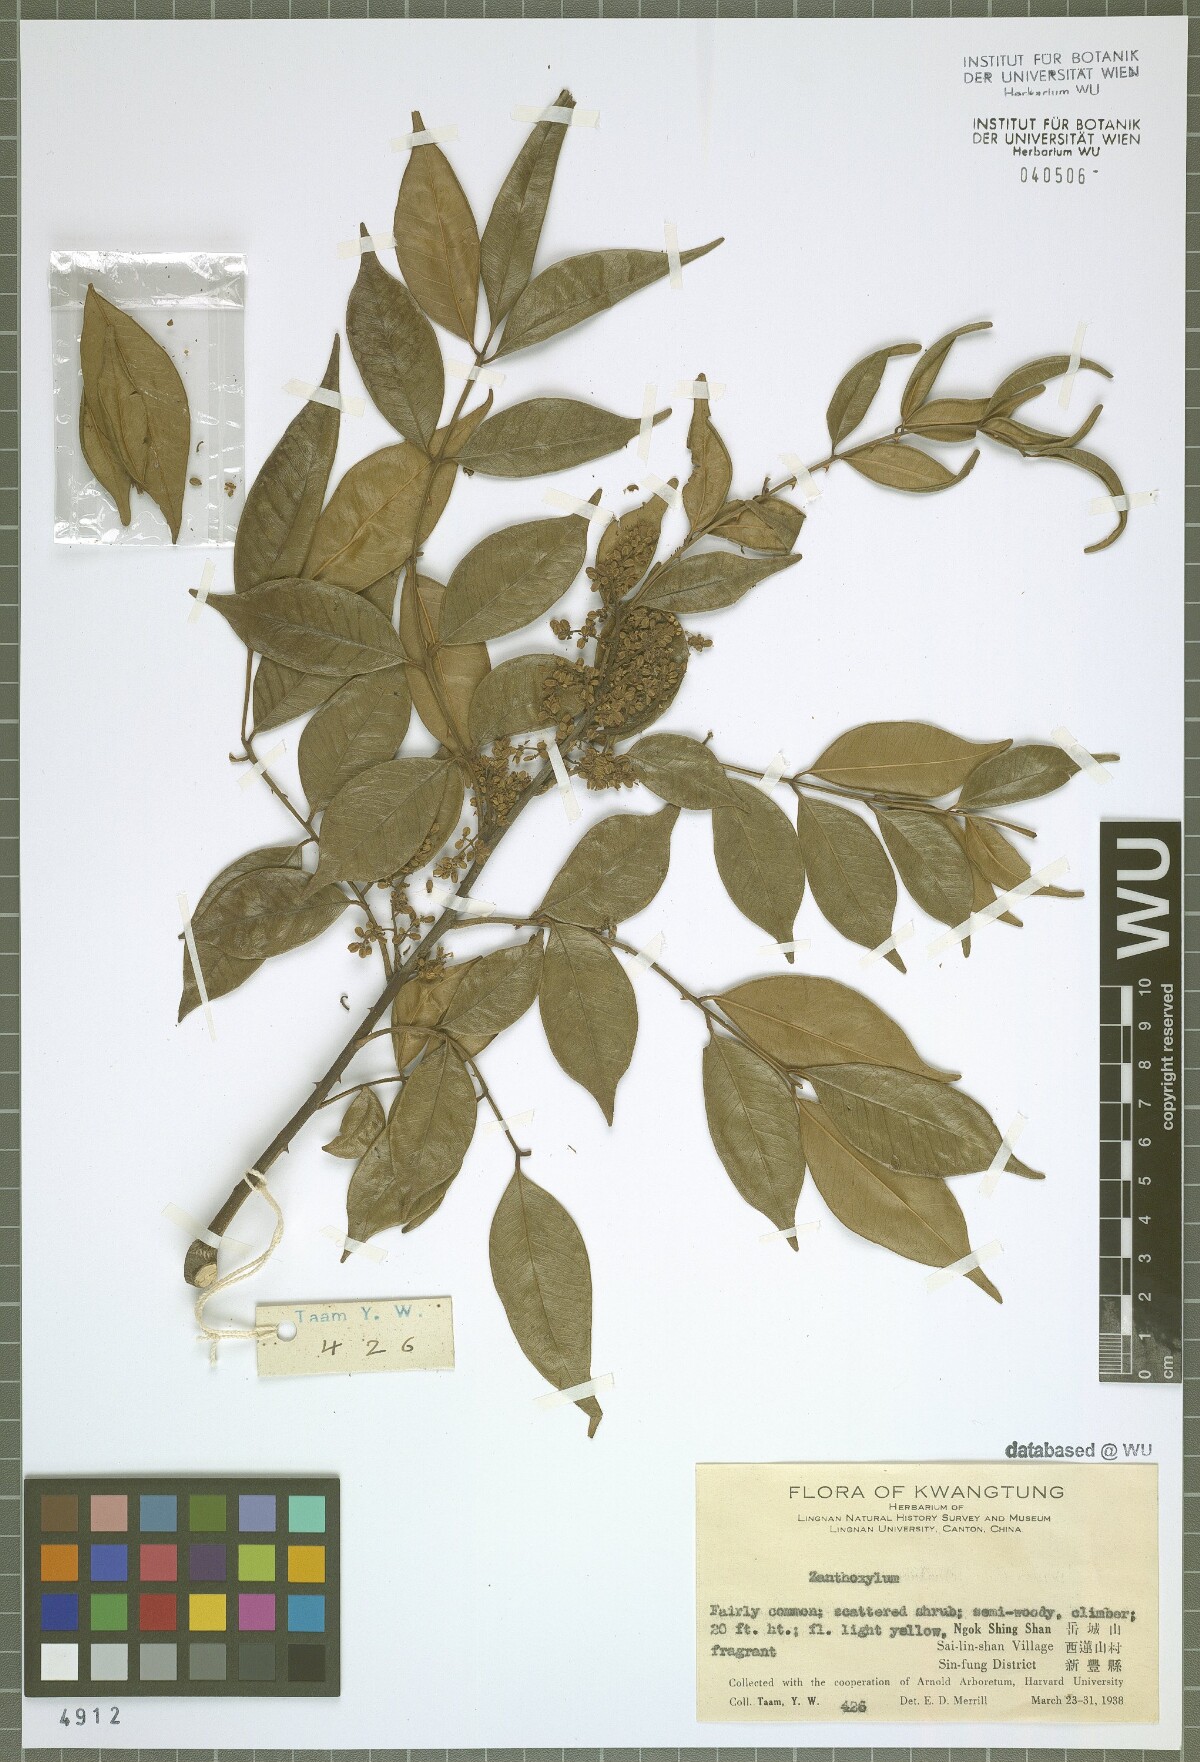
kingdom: Plantae
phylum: Tracheophyta
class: Magnoliopsida
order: Sapindales
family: Rutaceae
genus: Zanthoxylum
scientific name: Zanthoxylum
